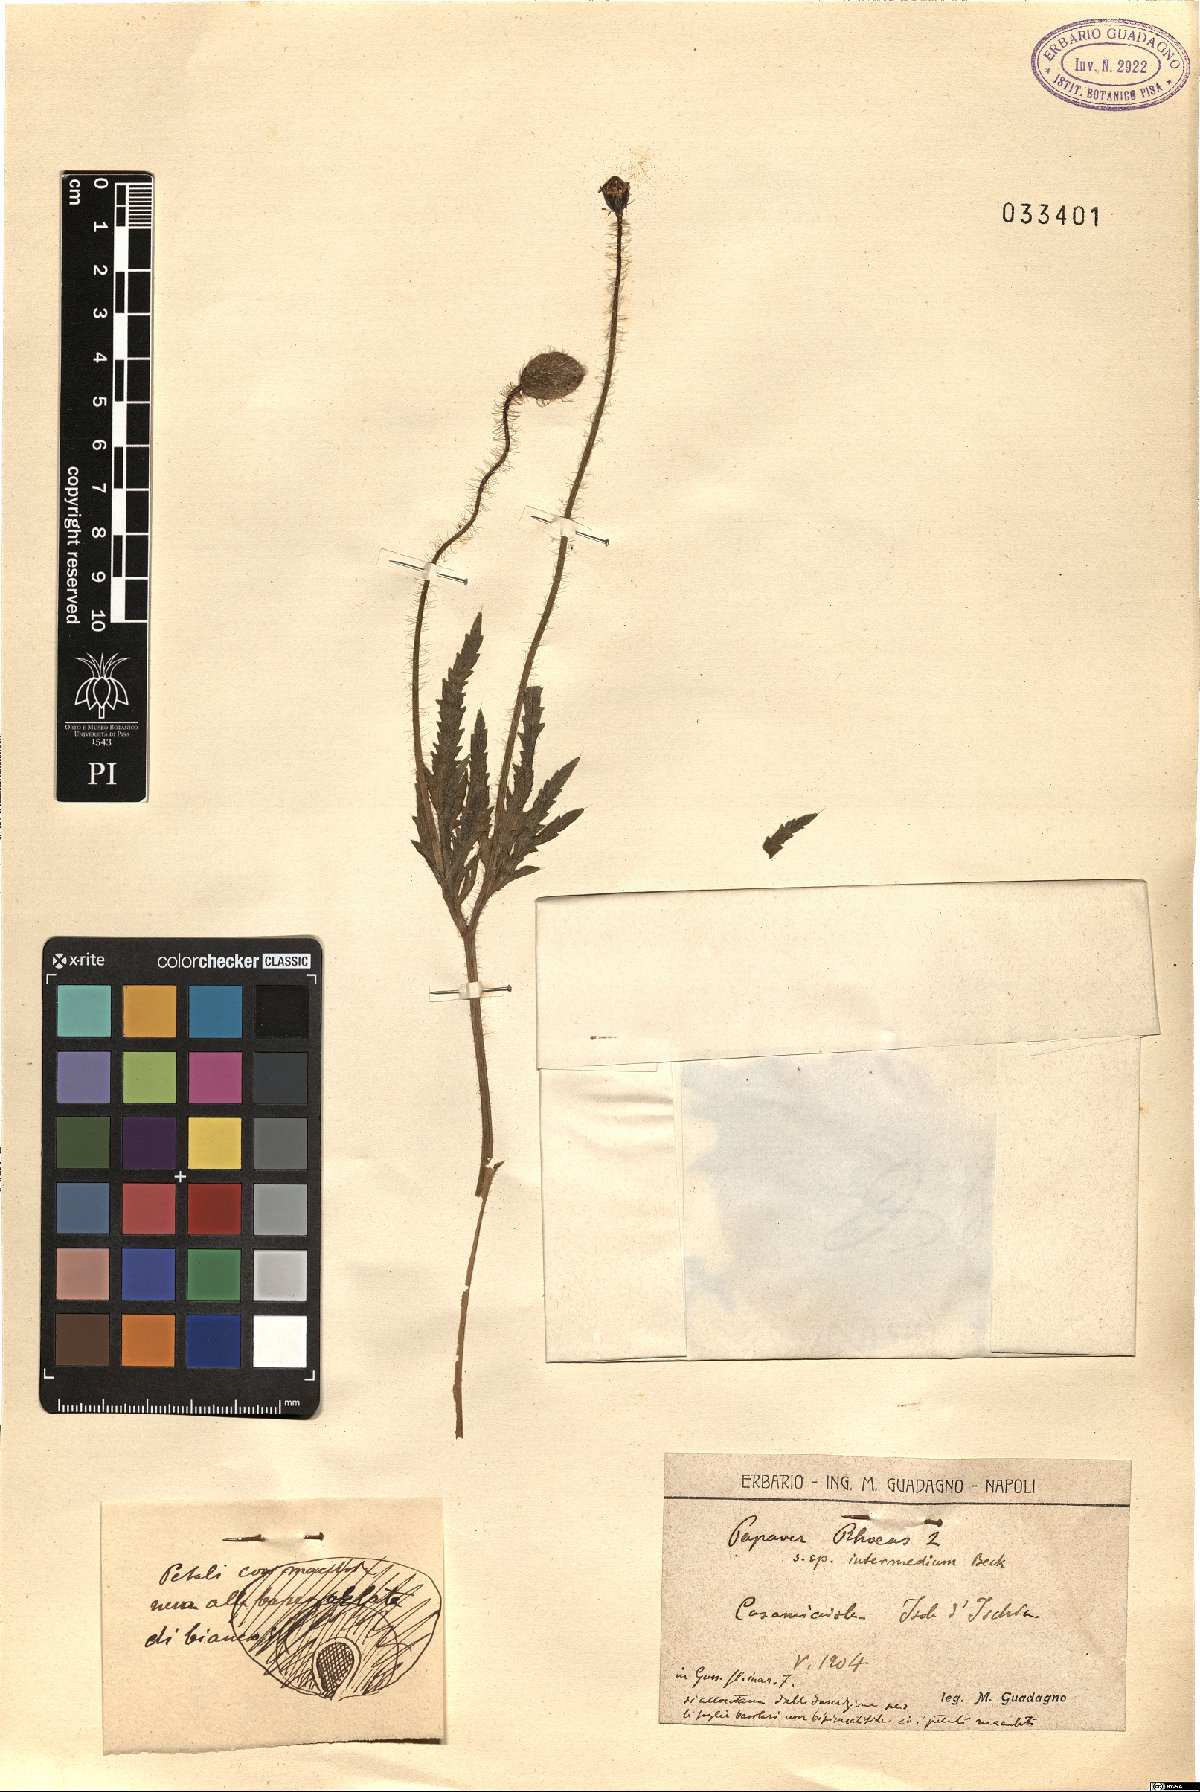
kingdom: Plantae
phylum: Tracheophyta
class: Magnoliopsida
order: Ranunculales
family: Papaveraceae
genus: Papaver
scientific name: Papaver rhoeas
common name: Corn poppy
